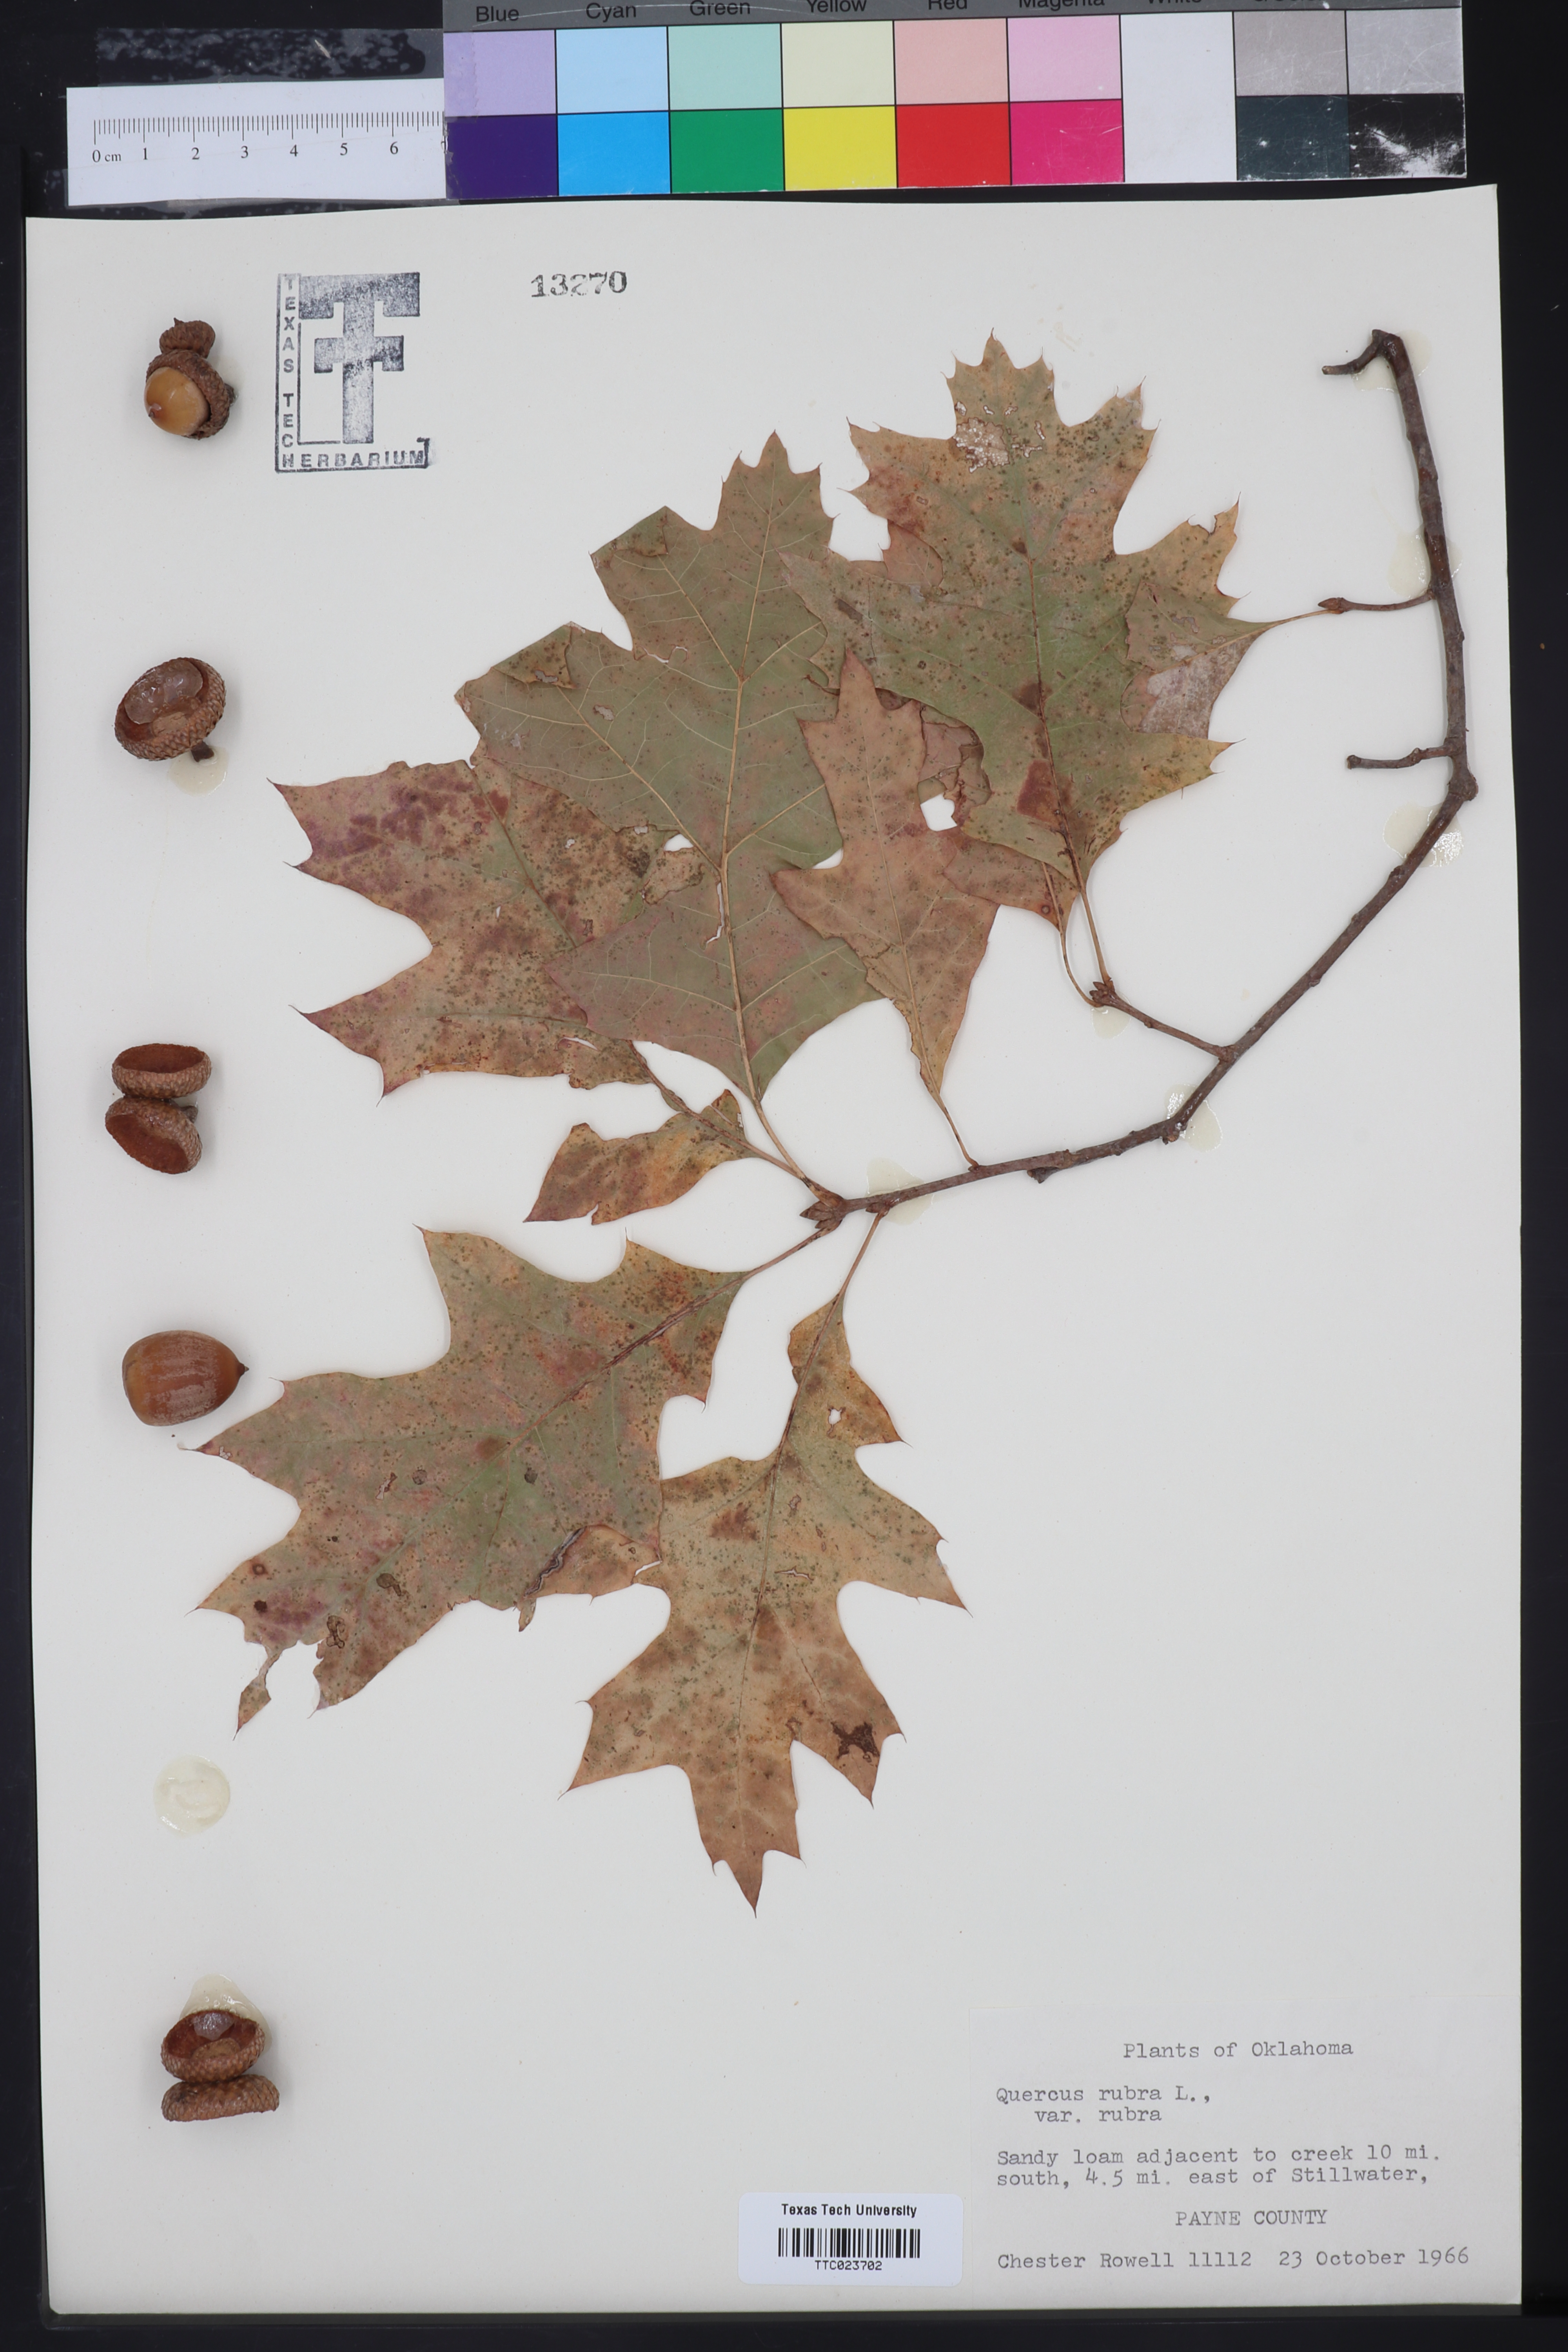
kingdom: Plantae
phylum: Tracheophyta
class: Magnoliopsida
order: Fagales
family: Fagaceae
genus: Quercus
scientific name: Quercus rubra
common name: Red oak
